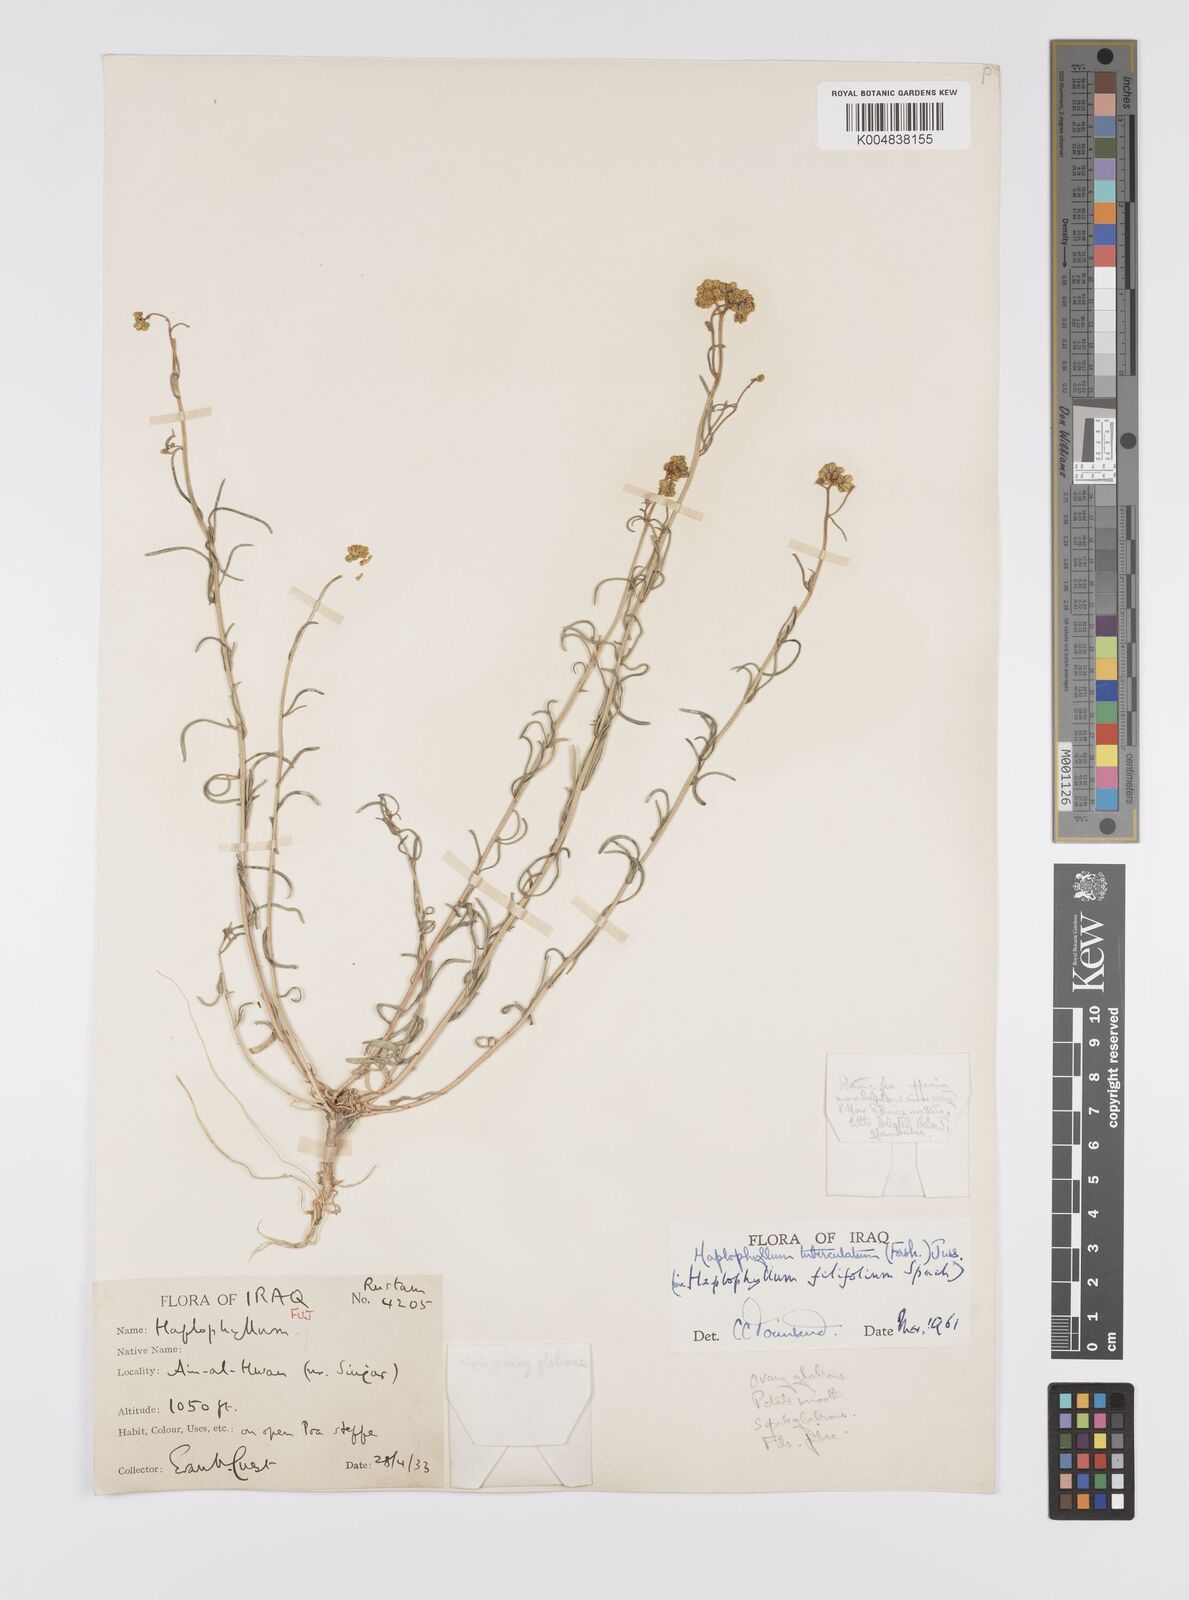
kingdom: Plantae
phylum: Tracheophyta
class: Magnoliopsida
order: Sapindales
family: Rutaceae
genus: Haplophyllum
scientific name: Haplophyllum tuberculatum
